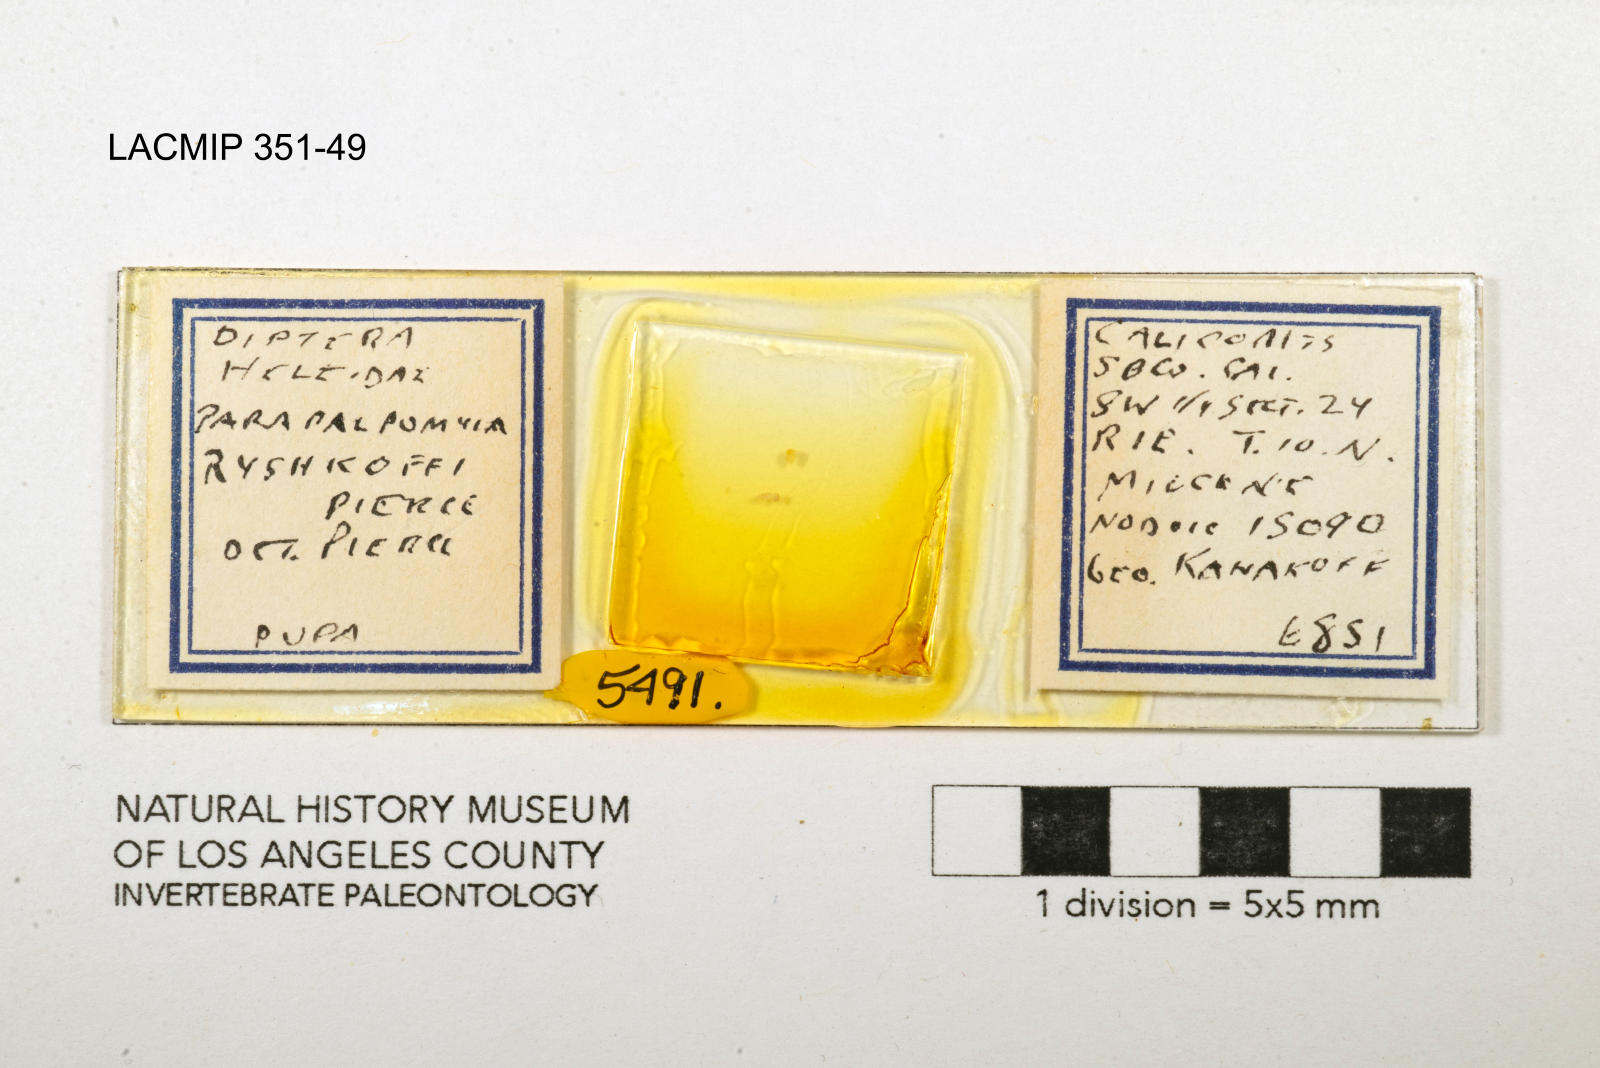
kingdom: Animalia
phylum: Arthropoda
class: Insecta
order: Diptera
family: Ceratopogonidae
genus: Palpomyia
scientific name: Palpomyia ryshkoffi
